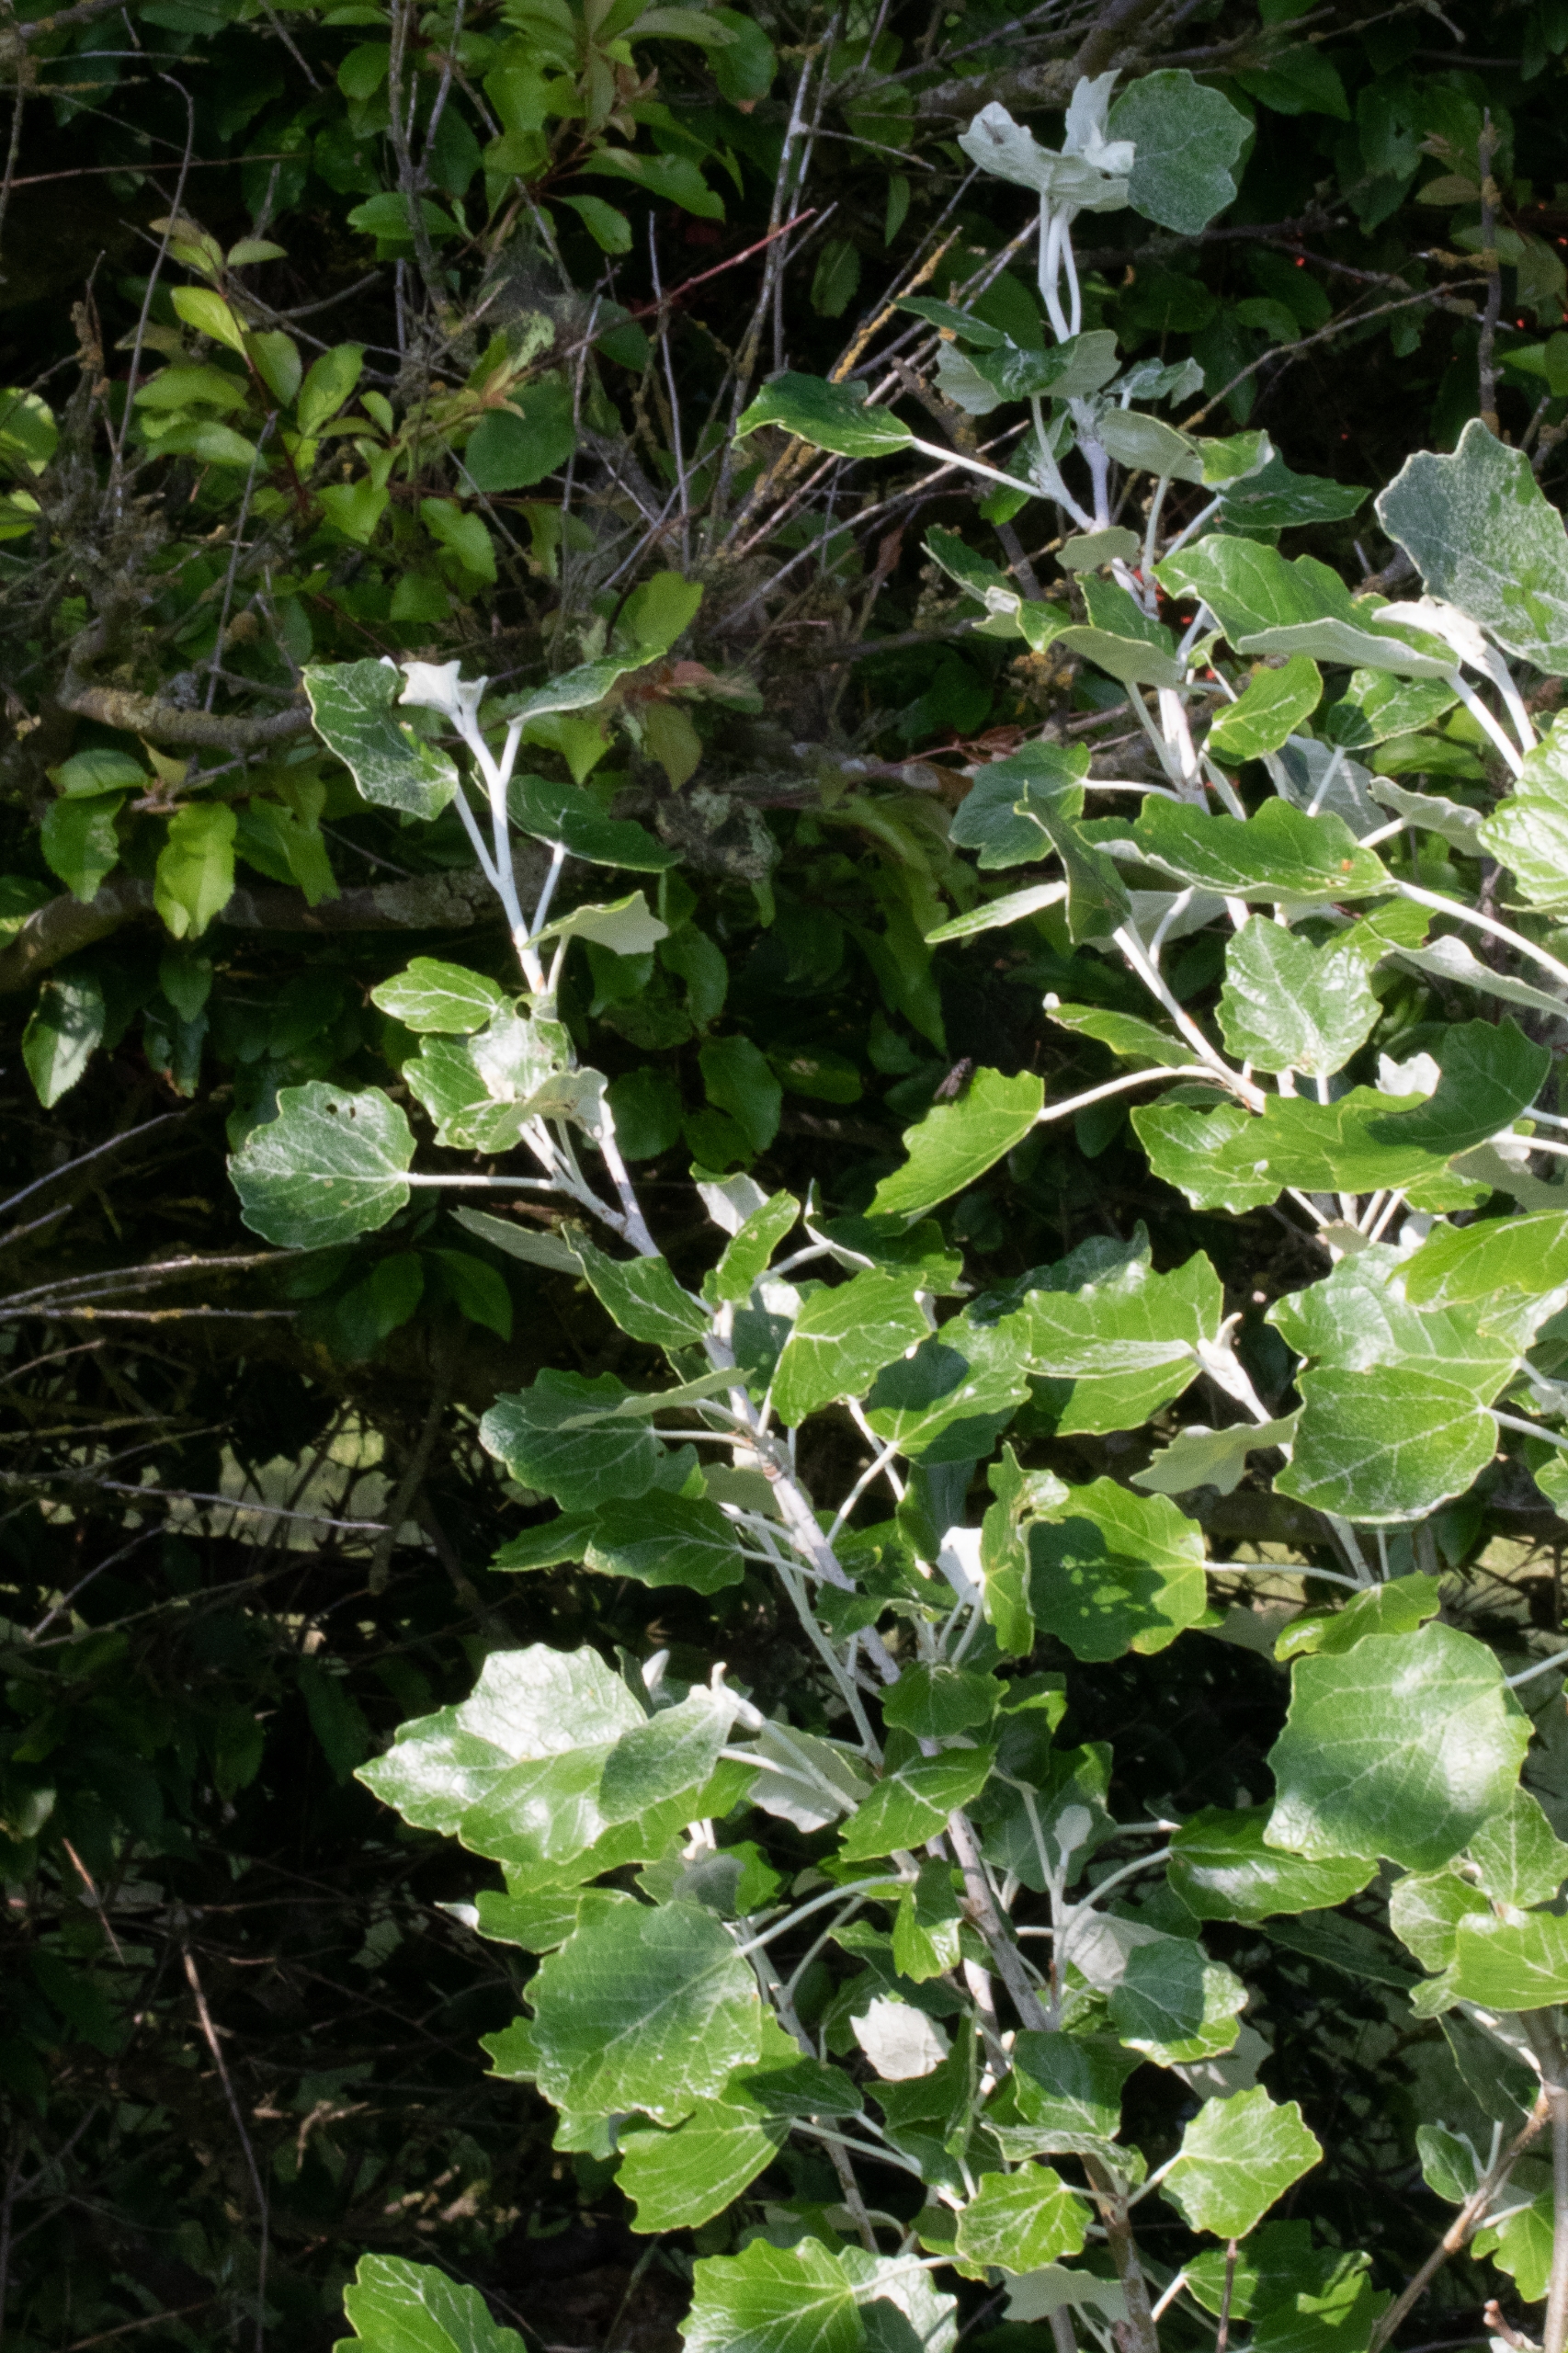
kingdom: Plantae
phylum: Tracheophyta
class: Magnoliopsida
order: Malpighiales
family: Salicaceae
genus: Populus
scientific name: Populus canescens
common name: Grå-poppel
